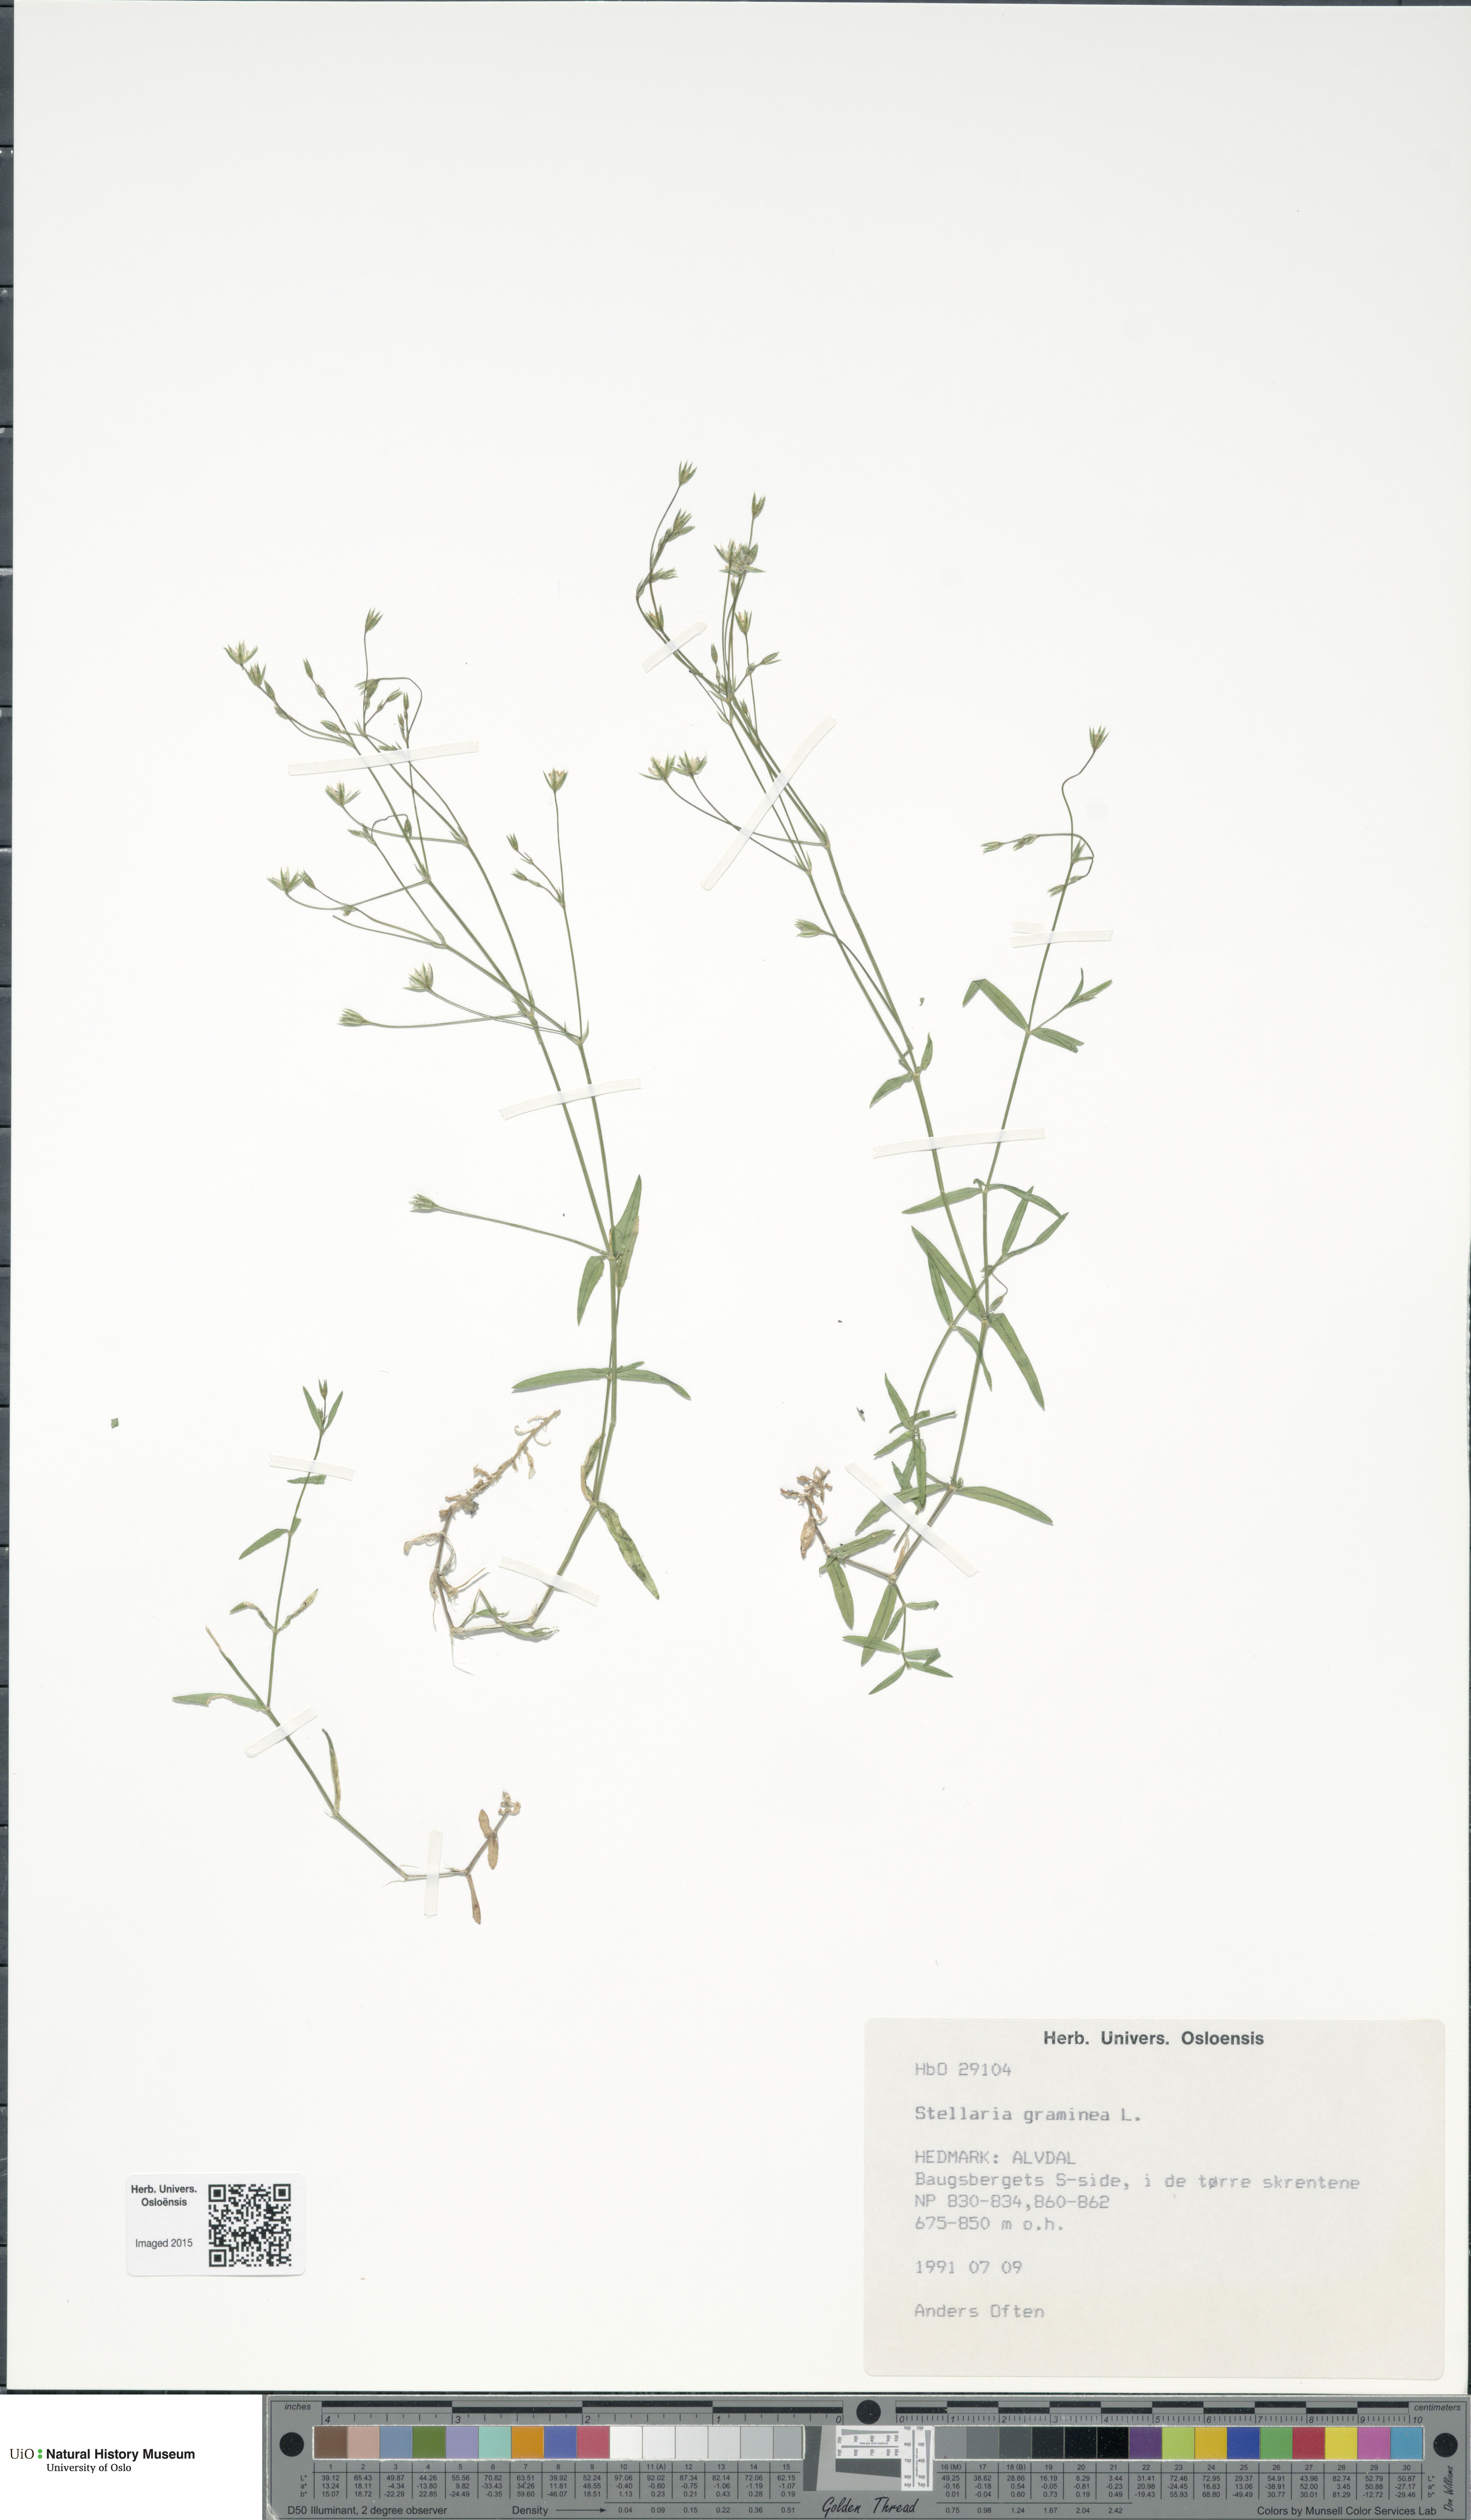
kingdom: Plantae
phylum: Tracheophyta
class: Magnoliopsida
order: Caryophyllales
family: Caryophyllaceae
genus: Stellaria
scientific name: Stellaria graminea
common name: Grass-like starwort
